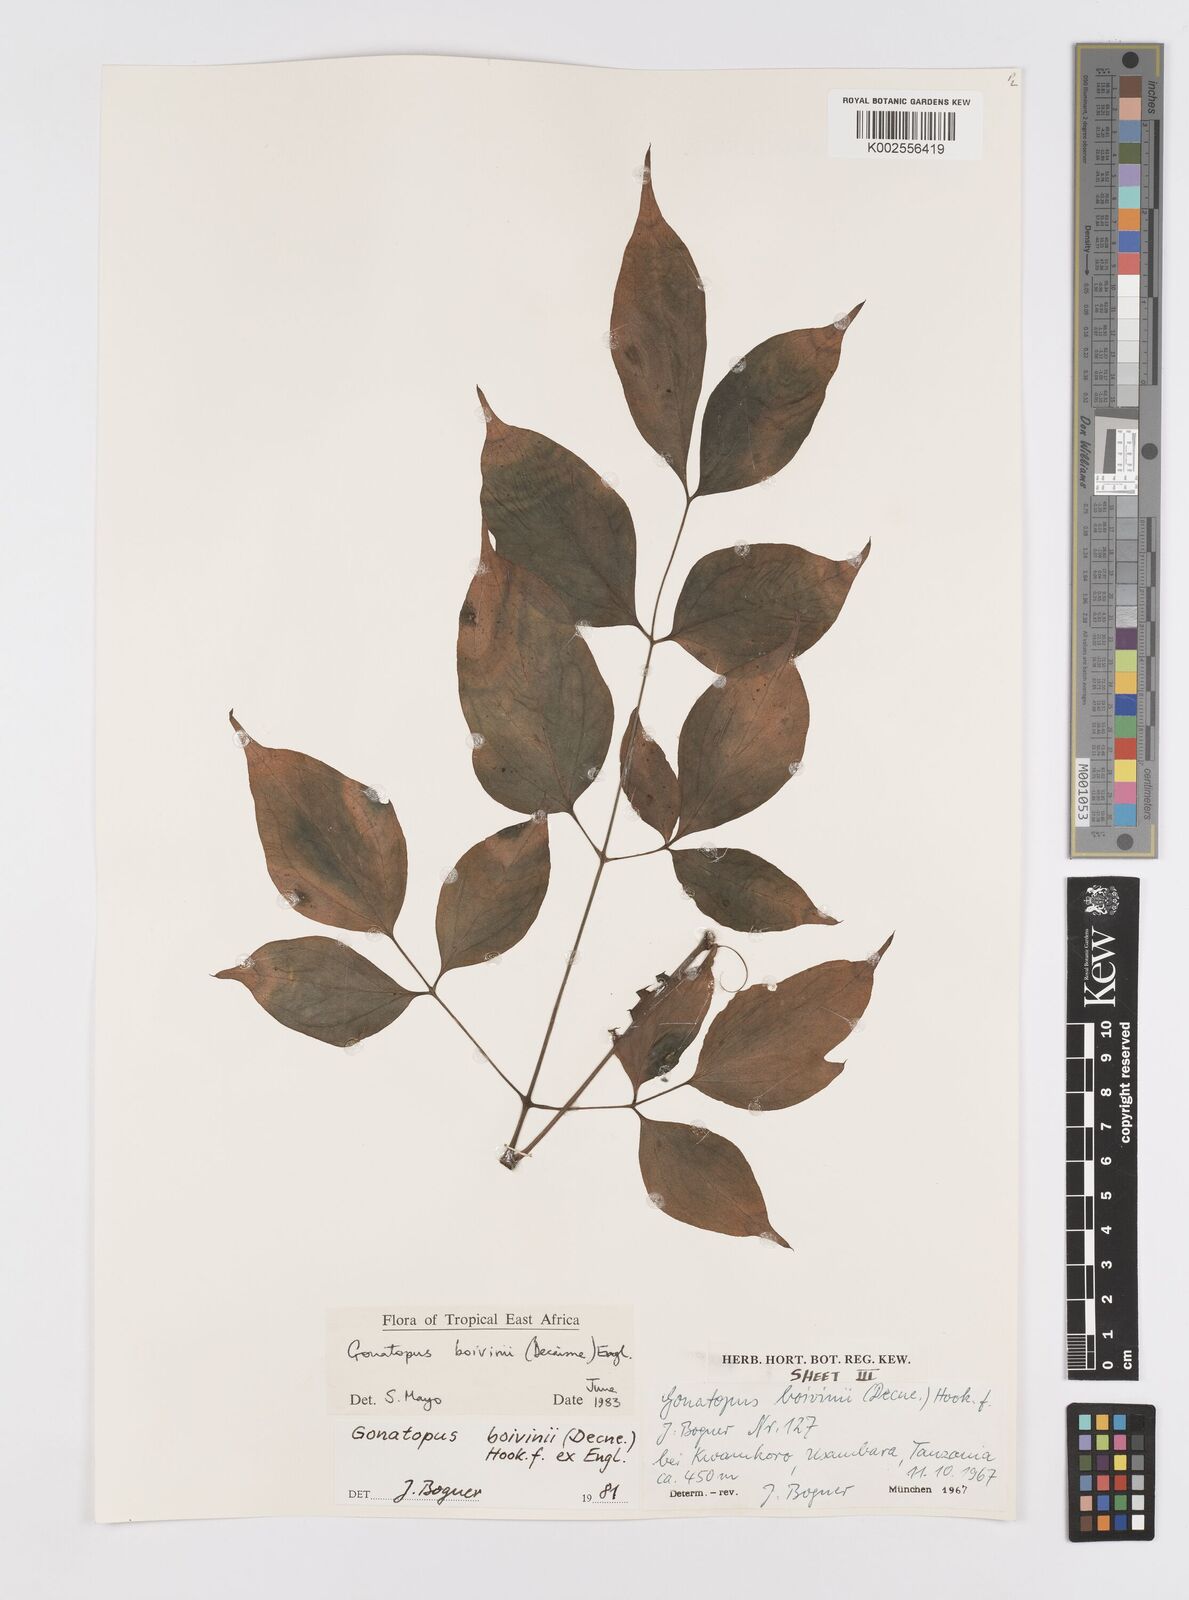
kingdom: Plantae
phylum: Tracheophyta
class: Liliopsida
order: Alismatales
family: Araceae
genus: Gonatopus
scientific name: Gonatopus boivinii
